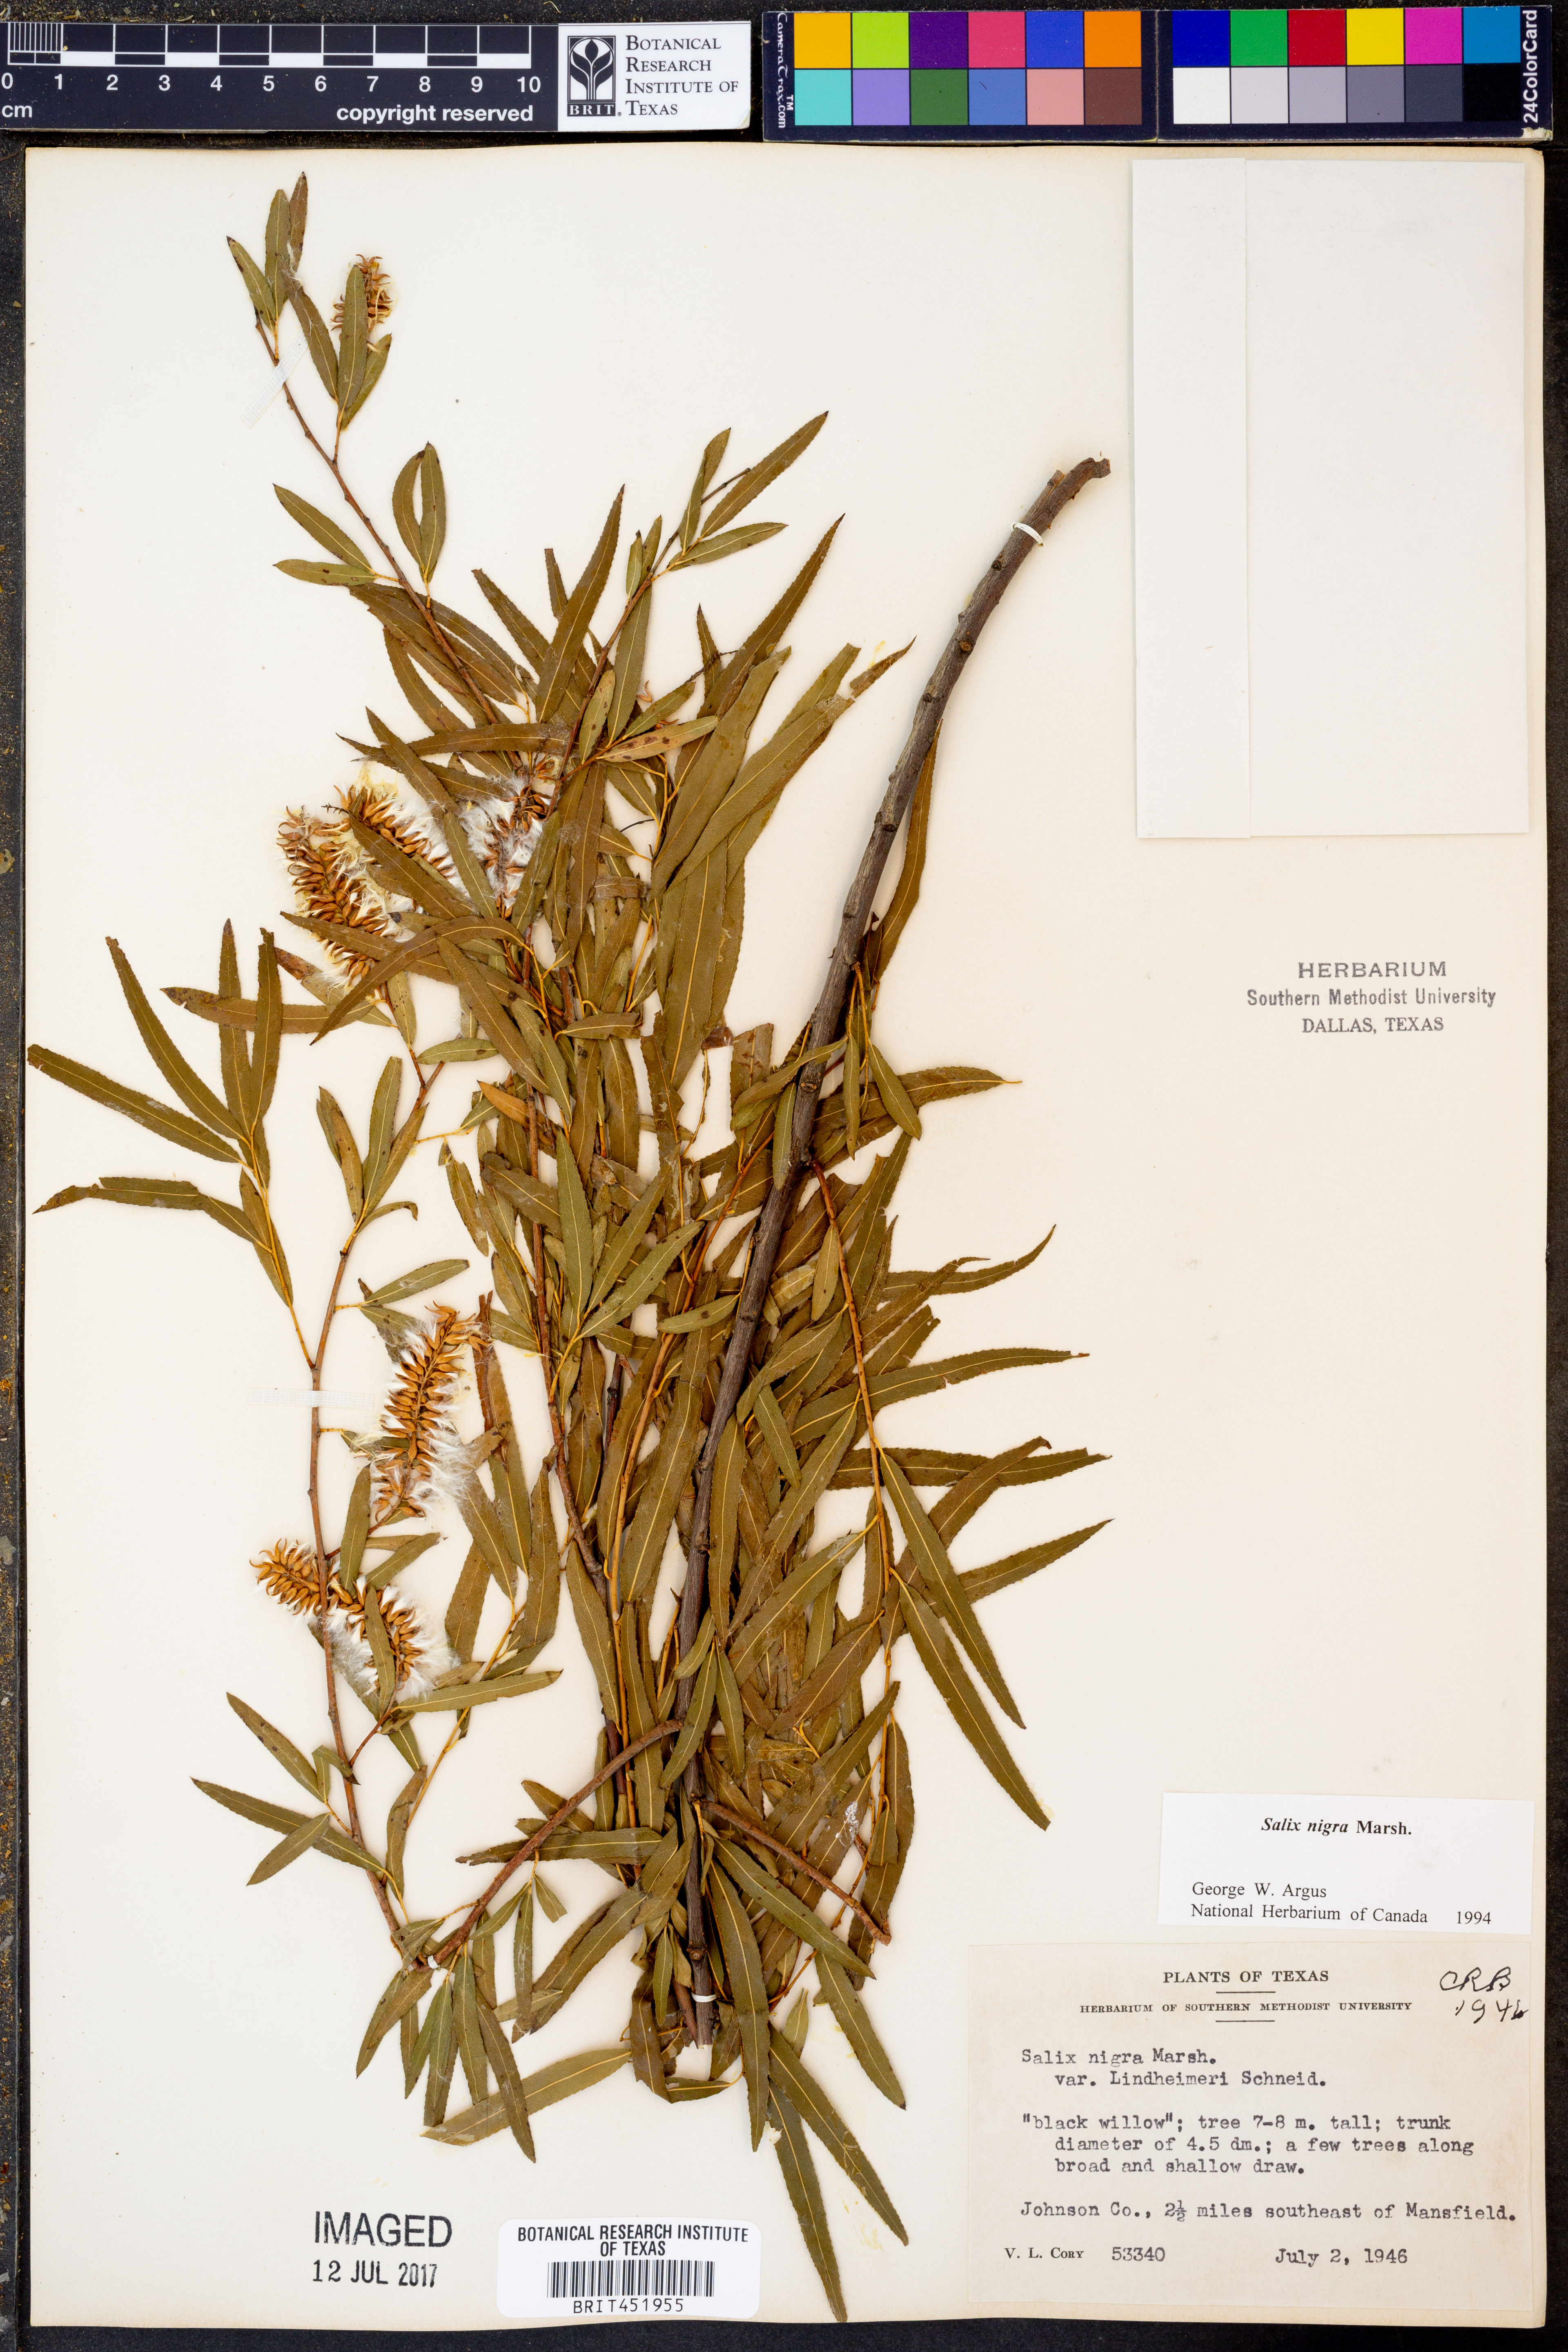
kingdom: Plantae
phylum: Tracheophyta
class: Magnoliopsida
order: Malpighiales
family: Salicaceae
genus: Salix
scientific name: Salix nigra
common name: Black willow
